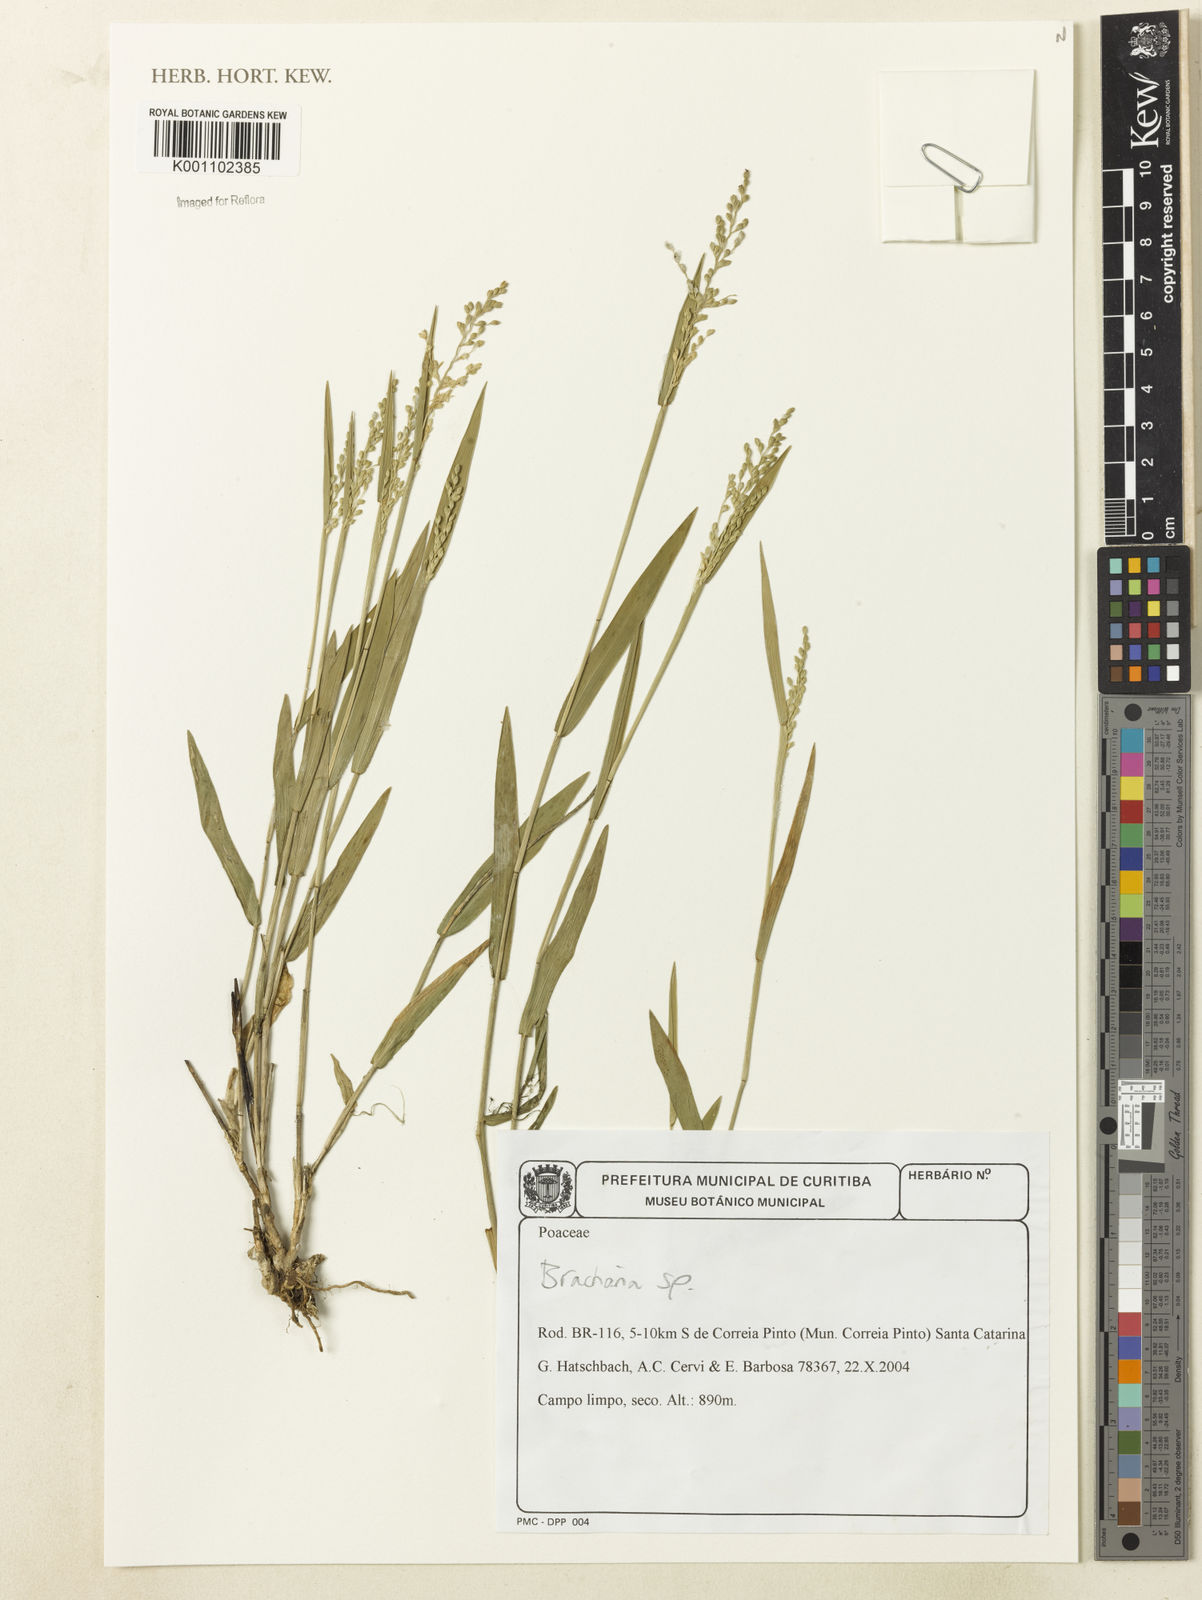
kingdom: Plantae
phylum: Tracheophyta
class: Liliopsida
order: Poales
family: Poaceae
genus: Brachiaria
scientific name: Brachiaria
